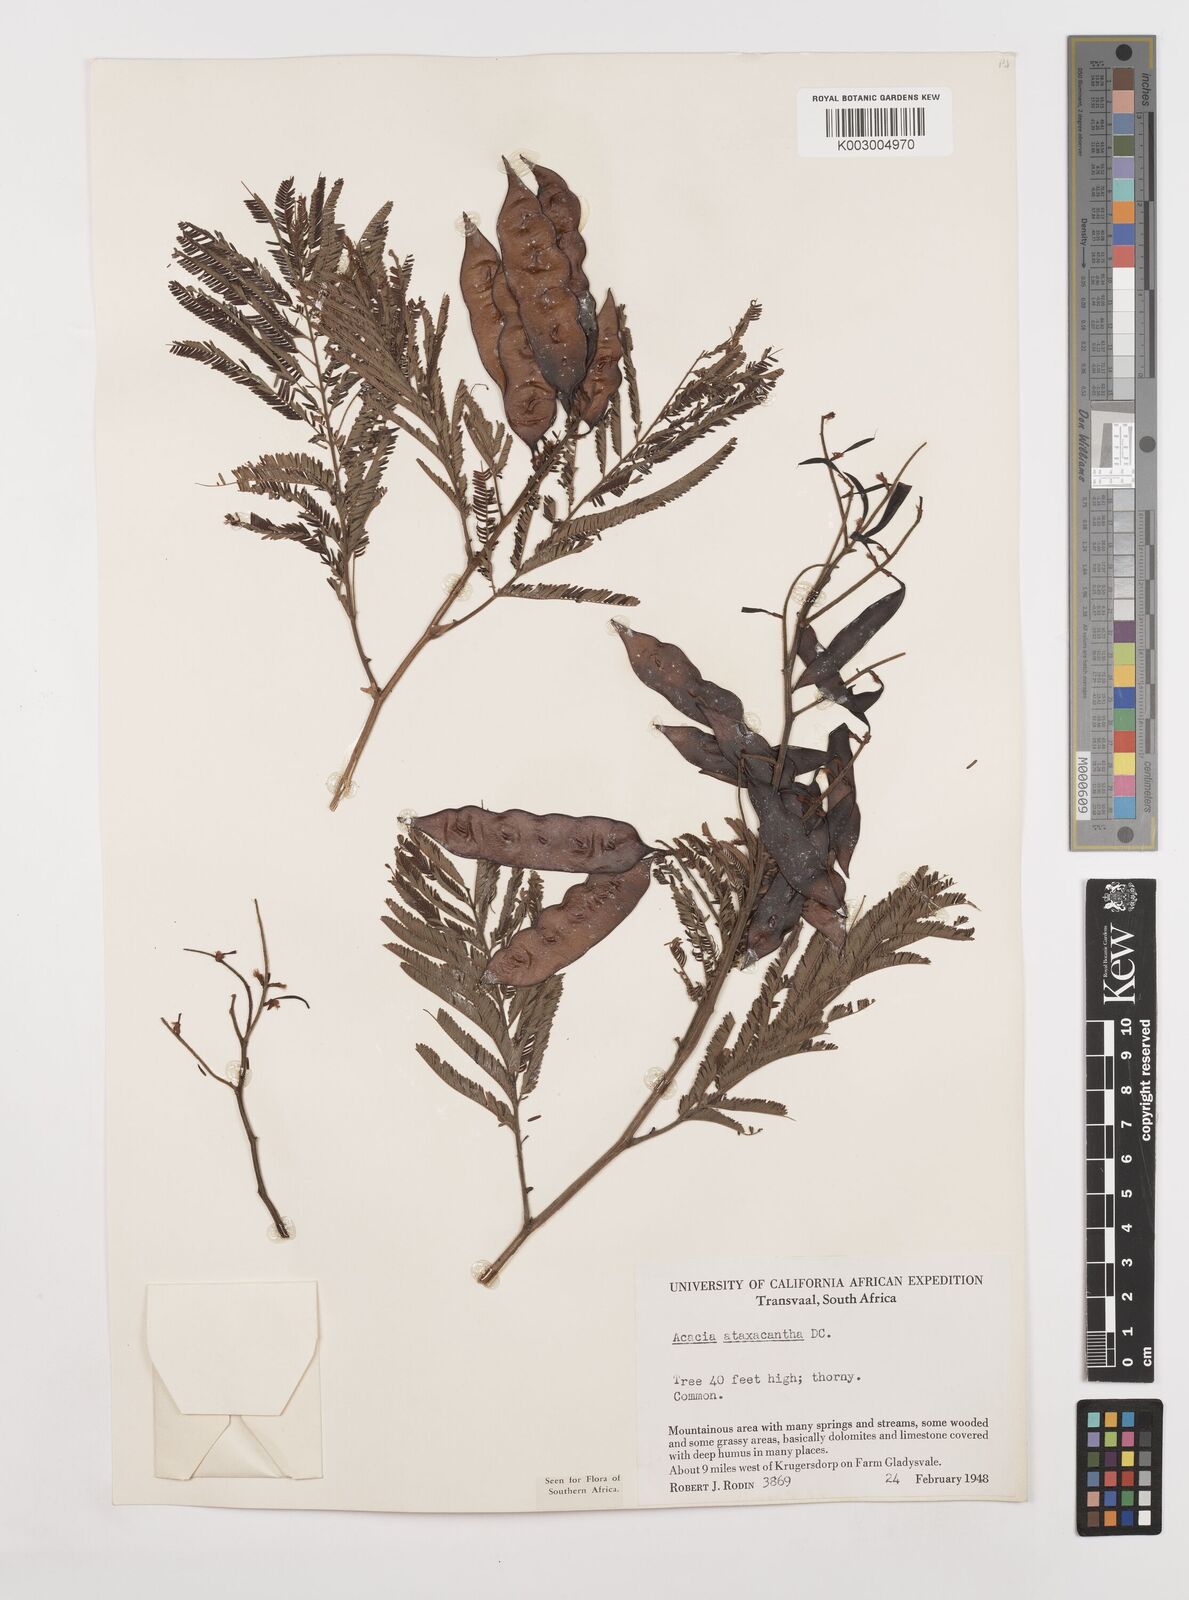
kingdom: Plantae
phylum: Tracheophyta
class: Magnoliopsida
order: Fabales
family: Fabaceae
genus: Senegalia
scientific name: Senegalia ataxacantha
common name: Flame acacia
